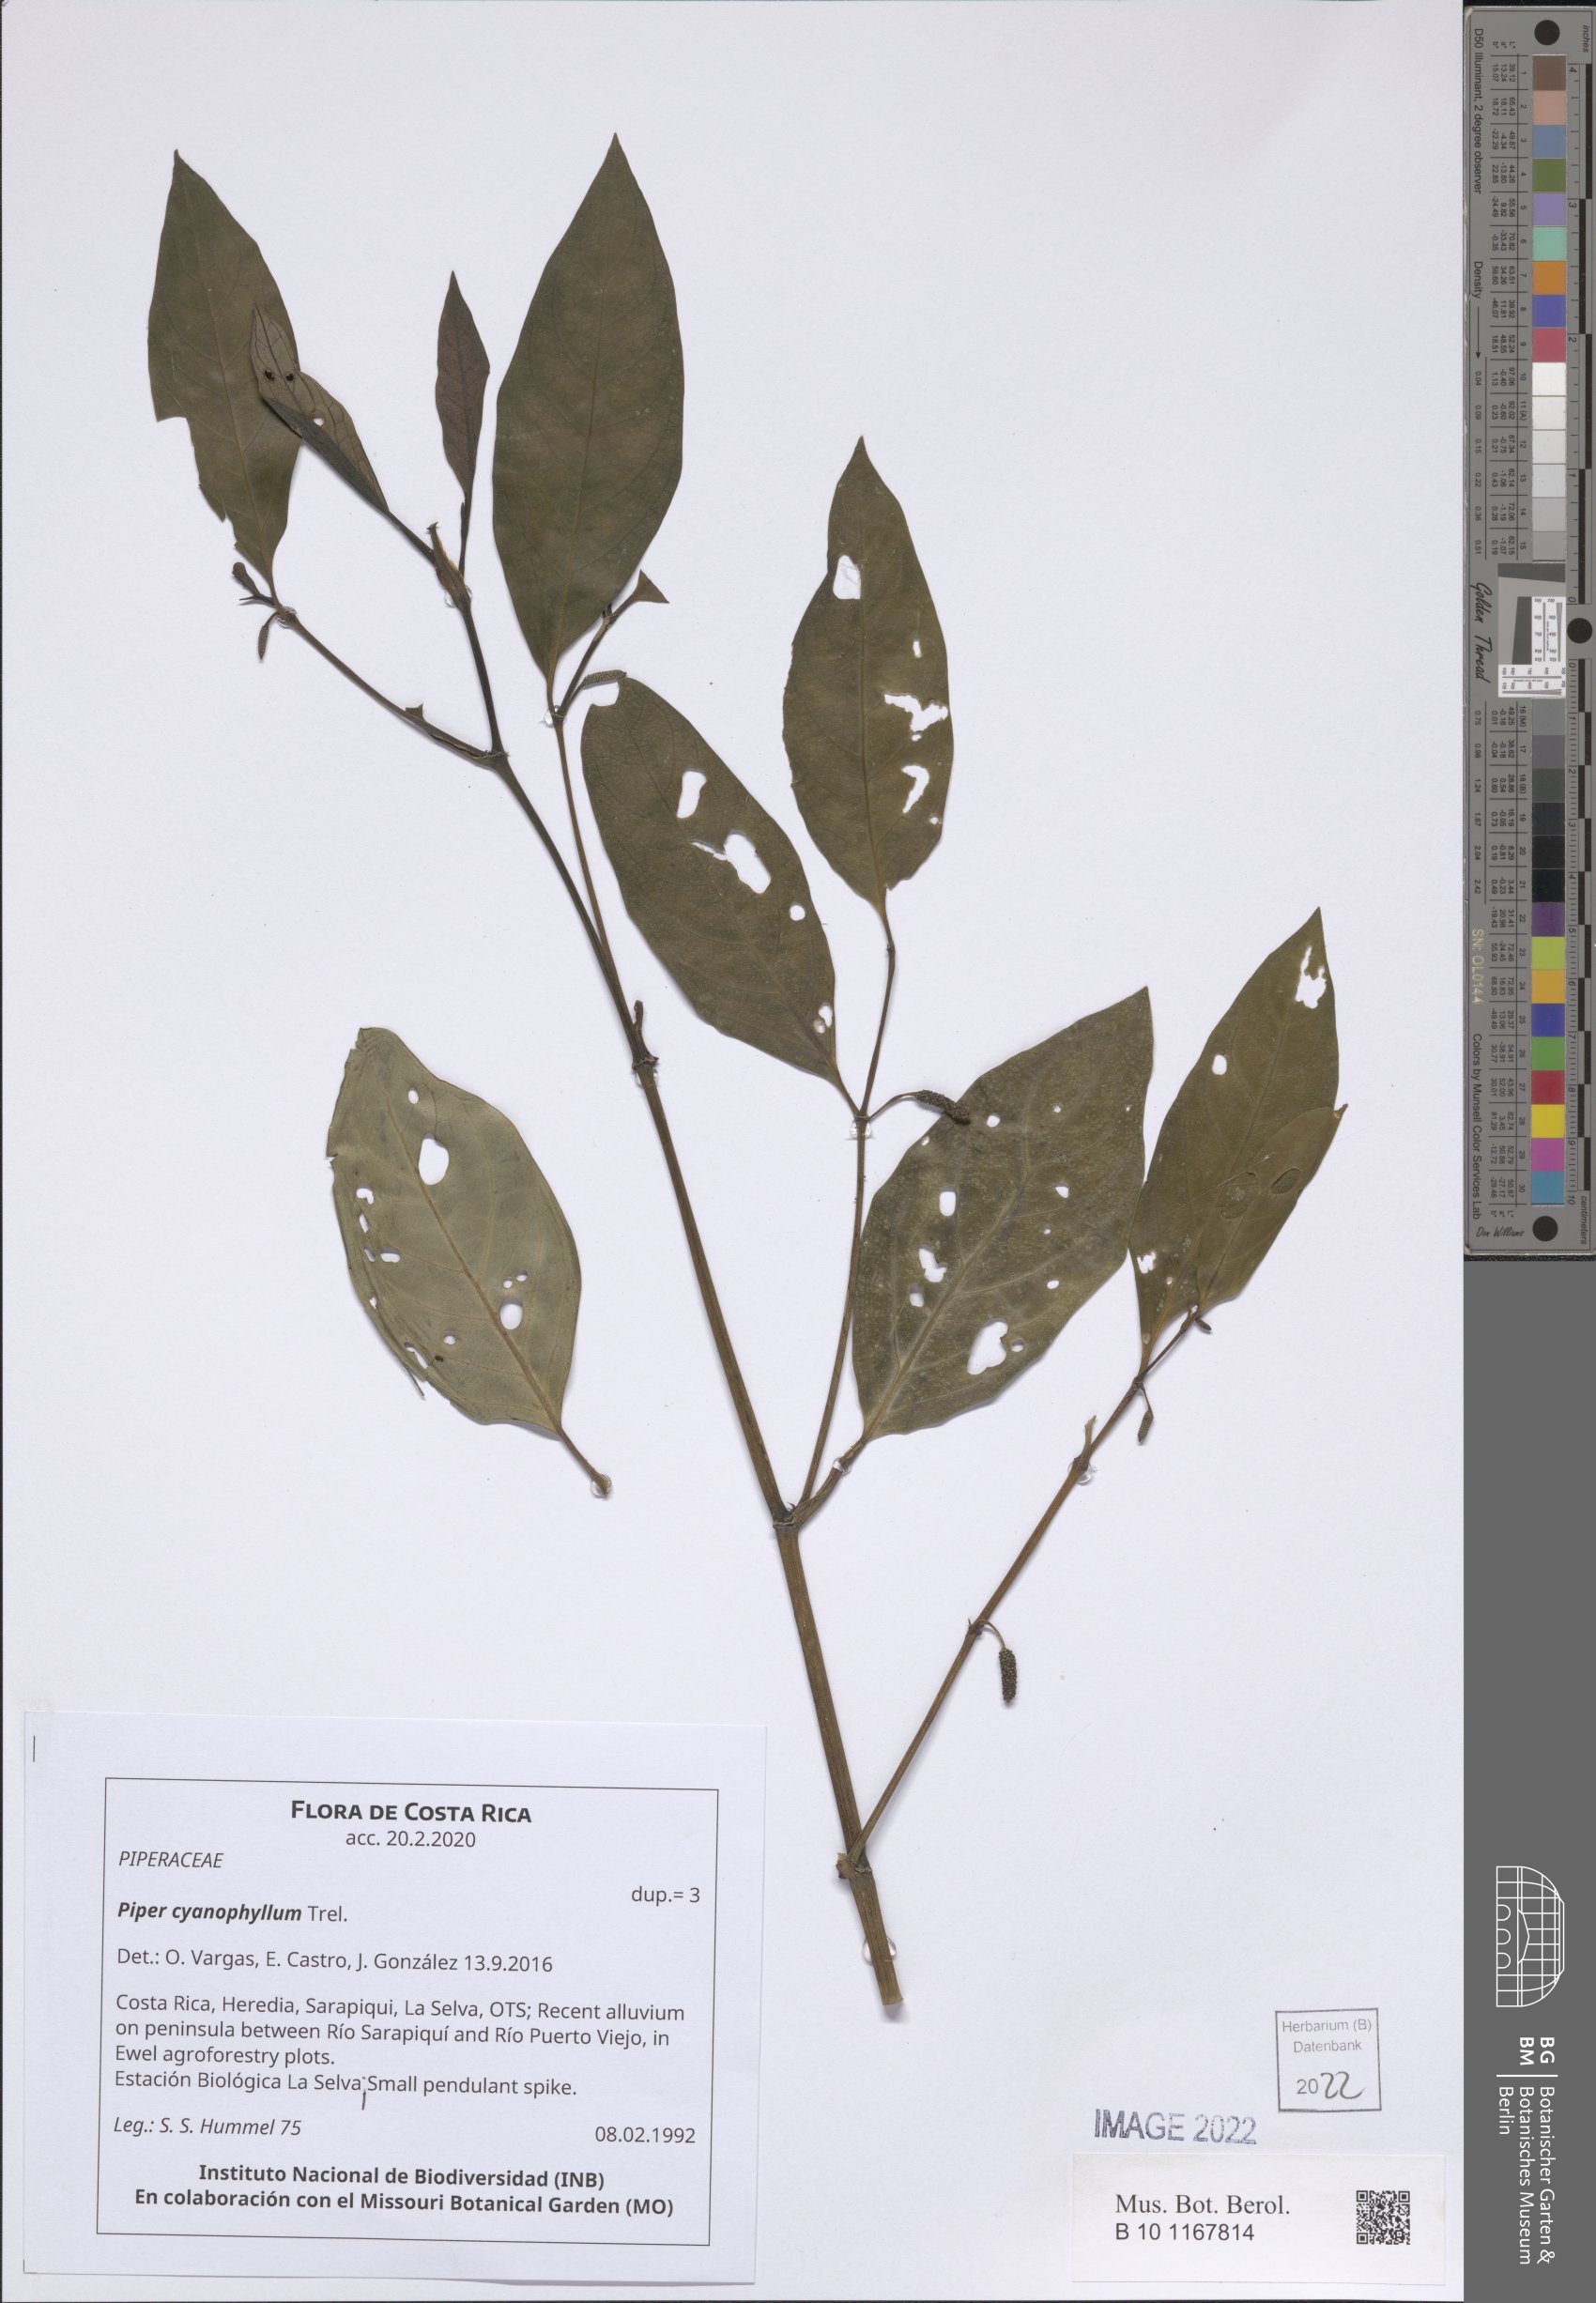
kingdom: Plantae
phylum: Tracheophyta
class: Magnoliopsida
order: Piperales
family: Piperaceae
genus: Piper
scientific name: Piper cyanophyllum
